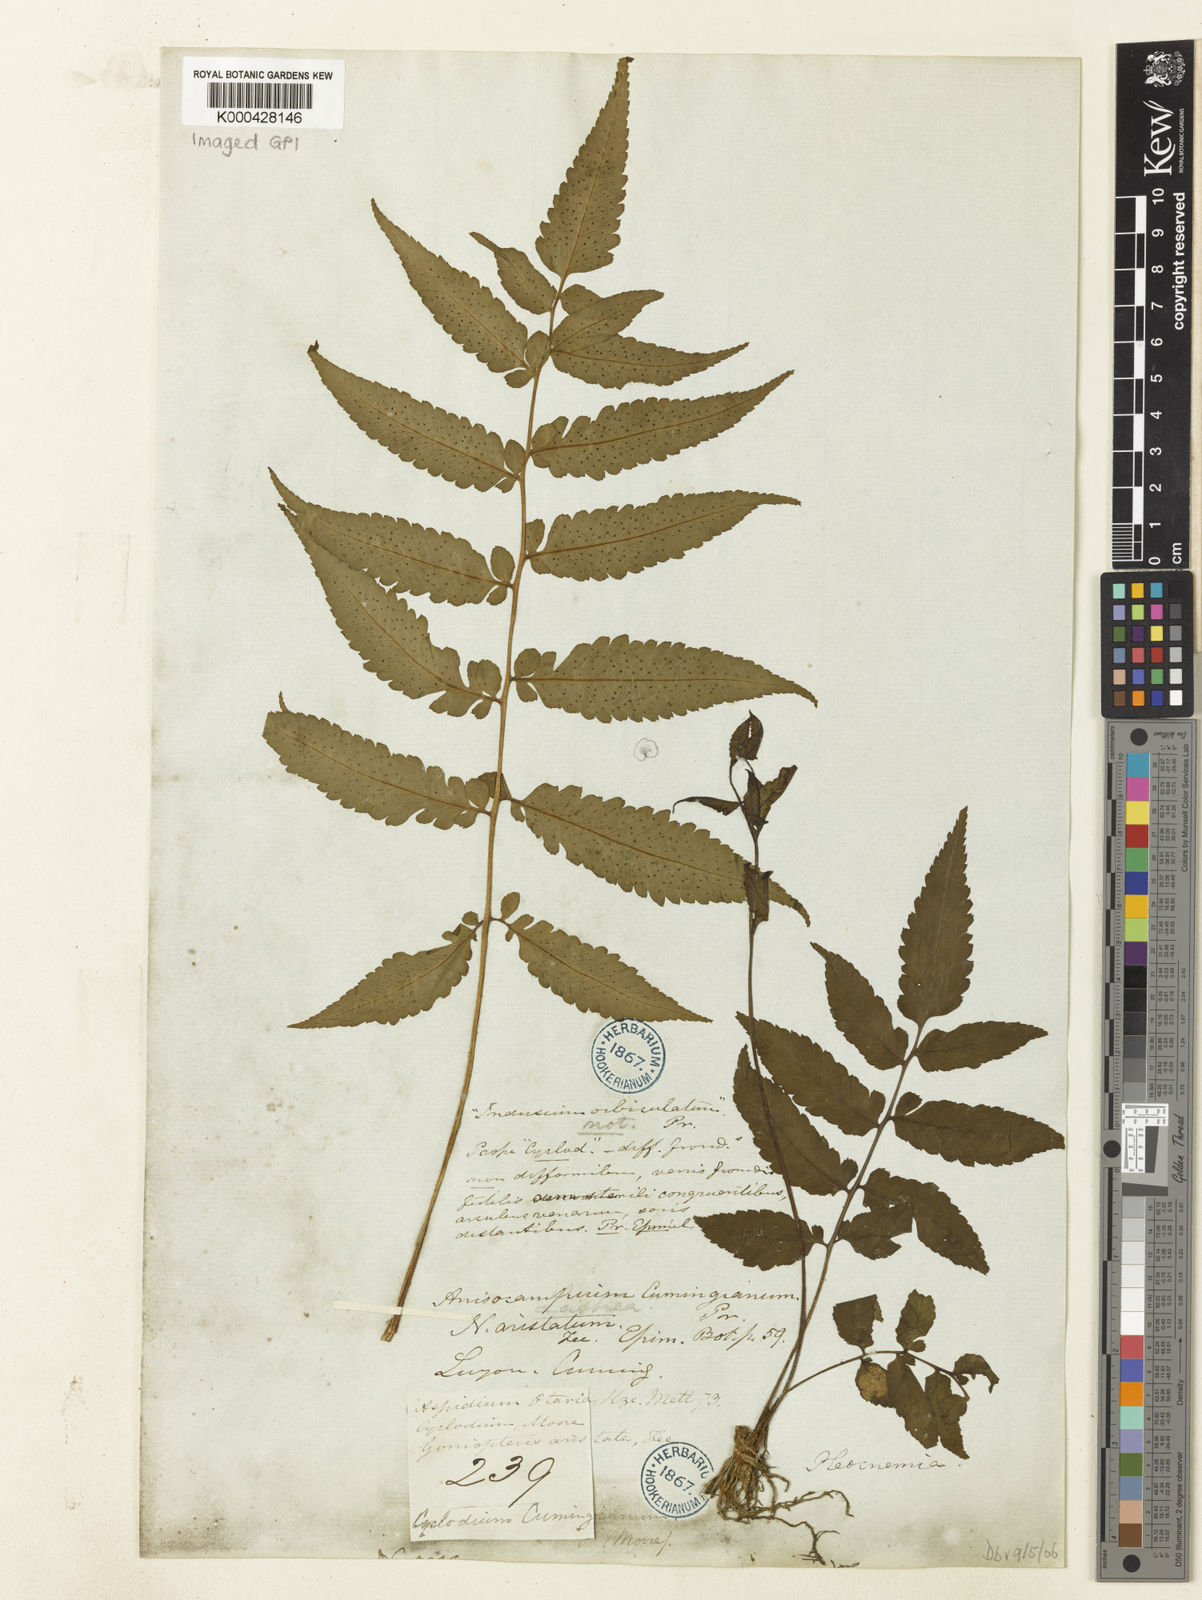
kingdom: Plantae
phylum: Tracheophyta
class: Polypodiopsida
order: Polypodiales
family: Athyriaceae
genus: Anisocampium
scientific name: Anisocampium cumingianum
